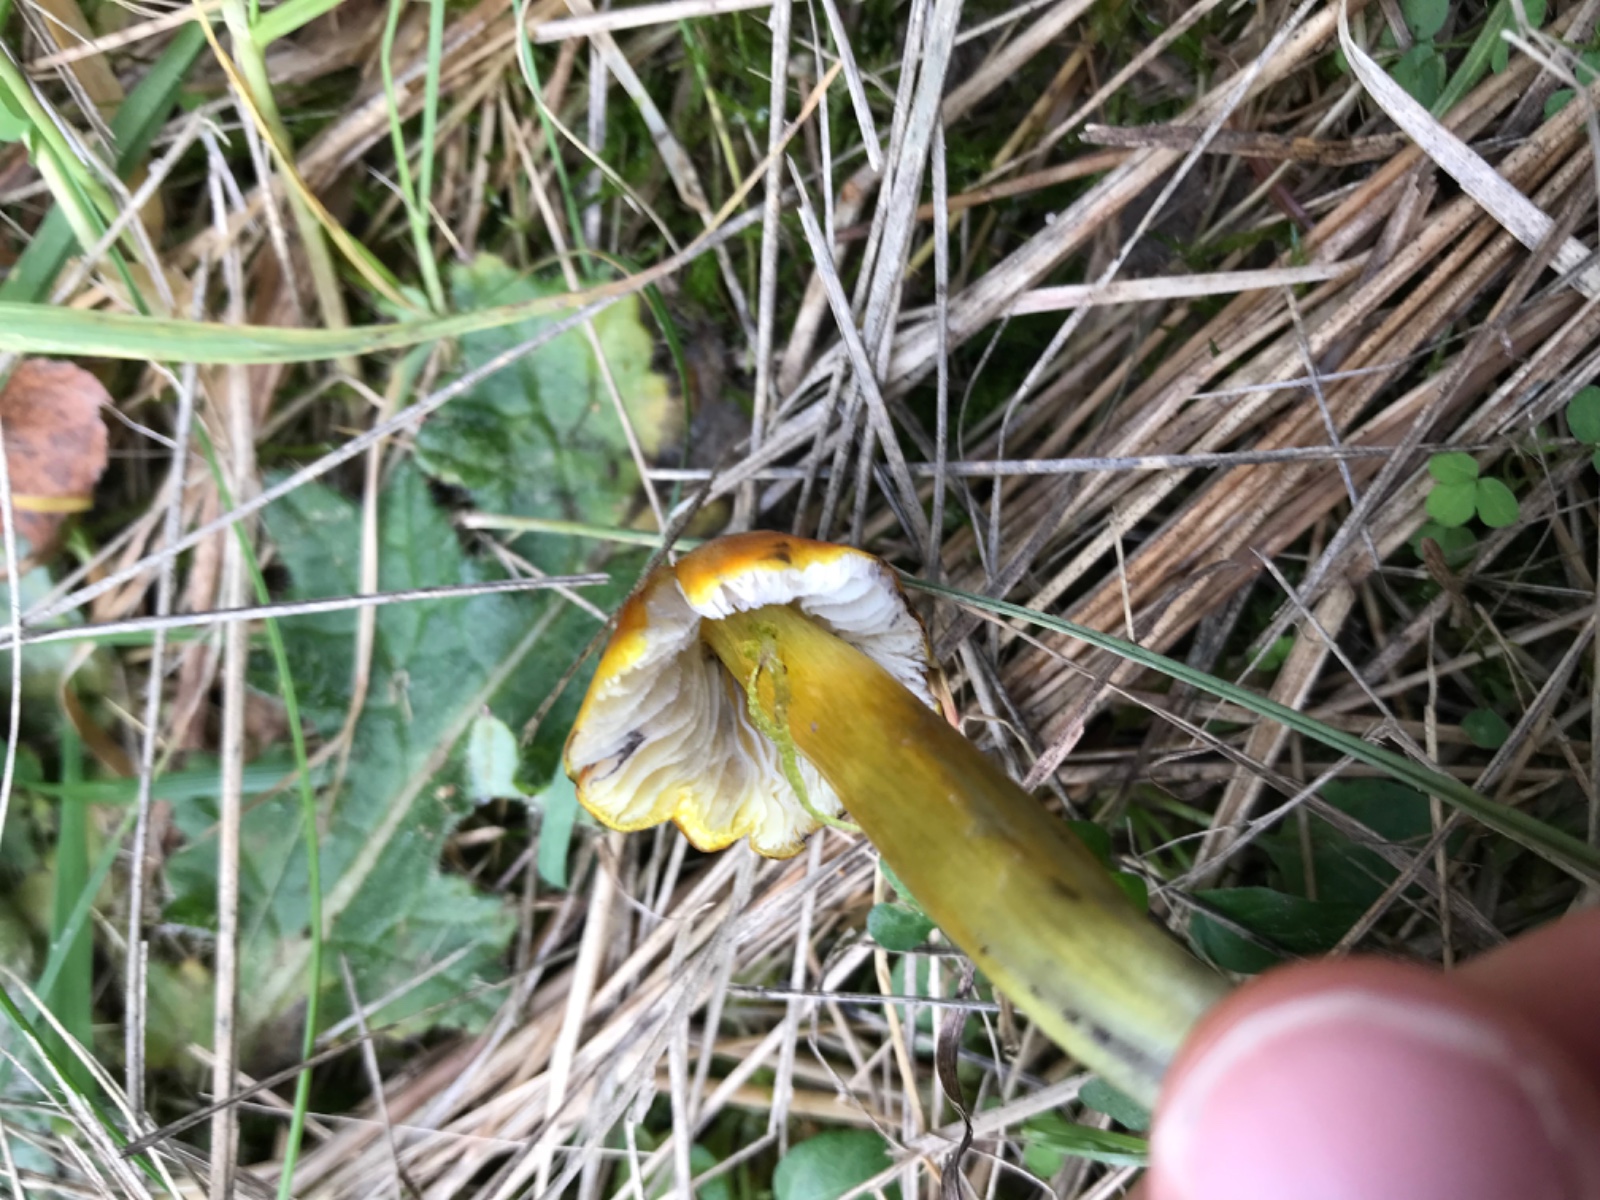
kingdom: Fungi
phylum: Basidiomycota
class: Agaricomycetes
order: Agaricales
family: Hygrophoraceae
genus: Hygrocybe
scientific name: Hygrocybe conica
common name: kegle-vokshat
